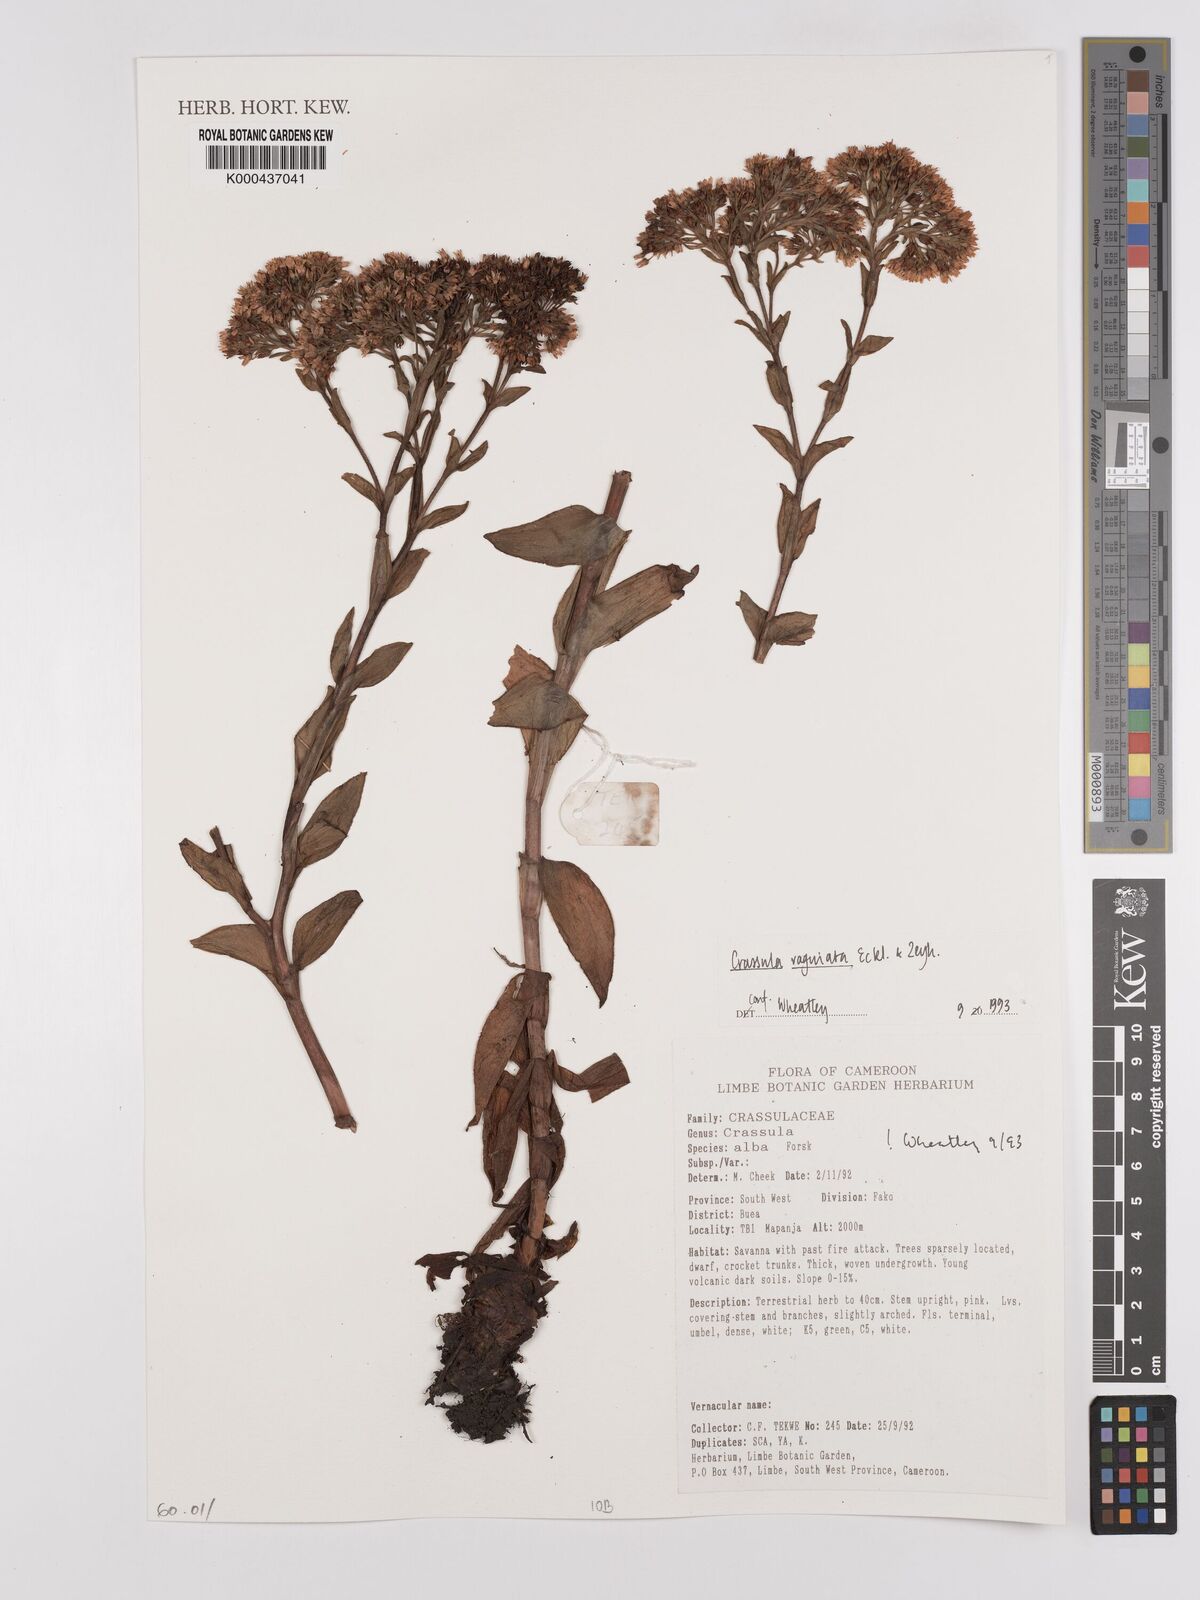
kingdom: Plantae
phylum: Tracheophyta
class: Magnoliopsida
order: Saxifragales
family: Crassulaceae
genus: Crassula
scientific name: Crassula vaginata
